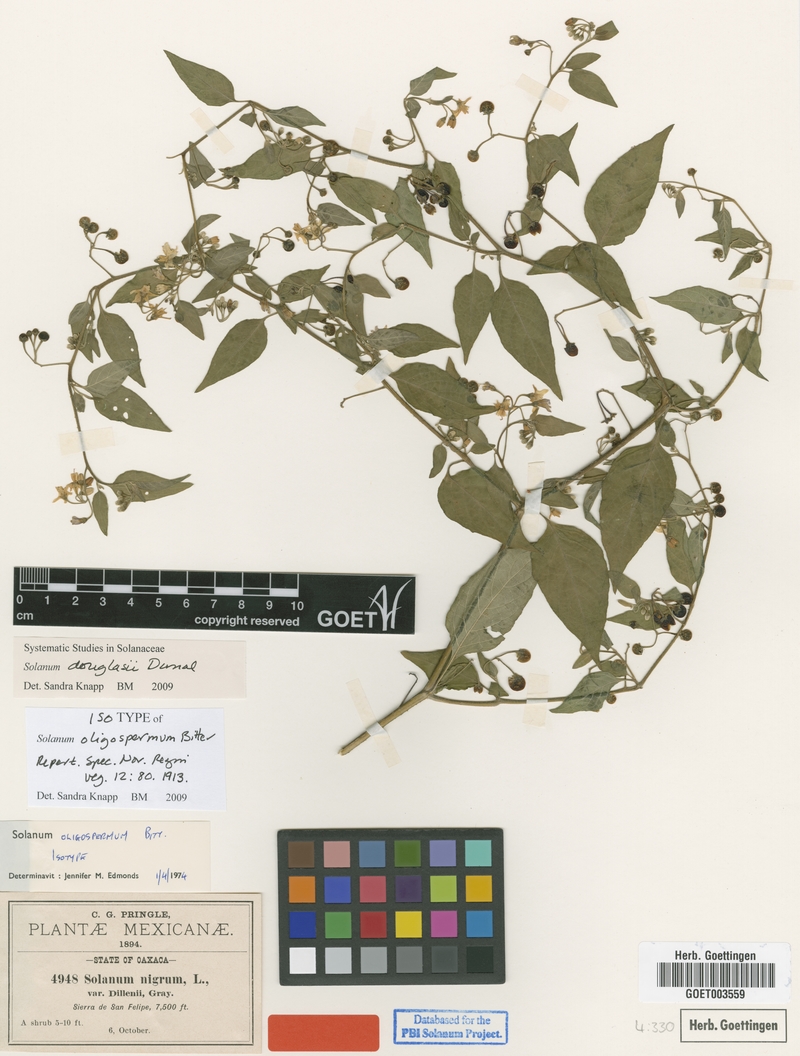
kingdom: Plantae
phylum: Tracheophyta
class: Magnoliopsida
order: Solanales
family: Solanaceae
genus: Solanum
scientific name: Solanum
